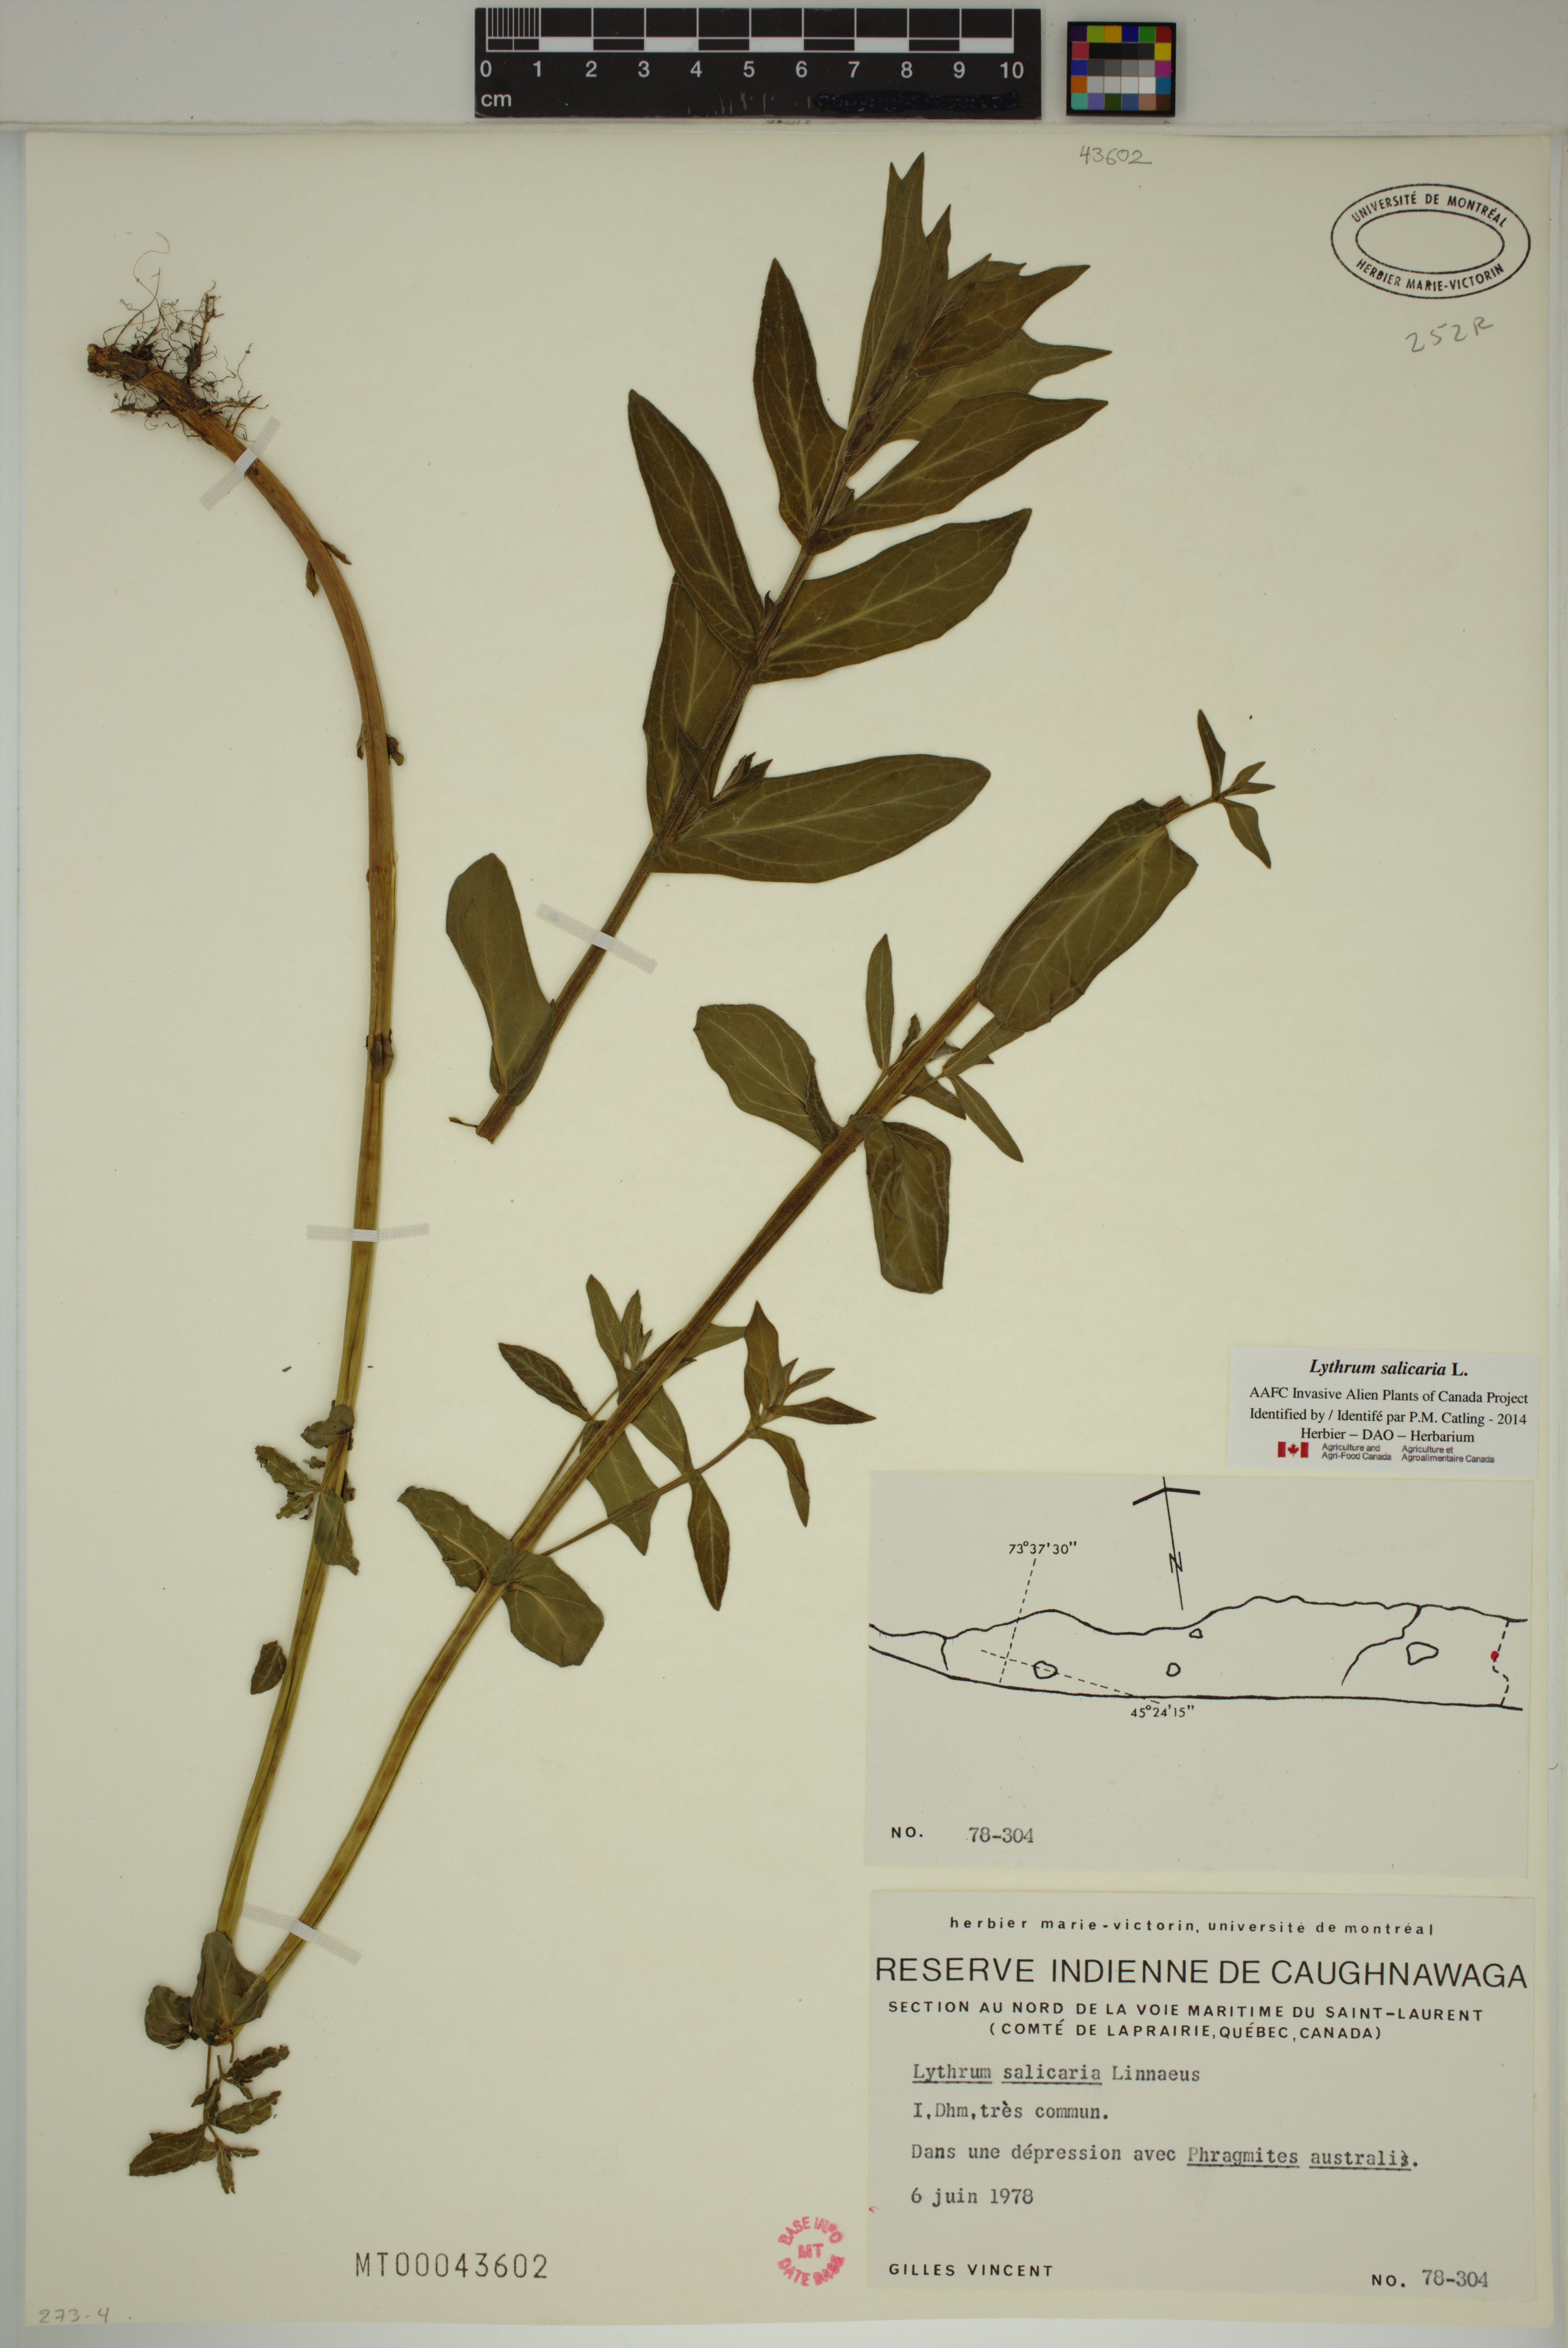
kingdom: Plantae
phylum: Tracheophyta
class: Magnoliopsida
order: Myrtales
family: Lythraceae
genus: Lythrum
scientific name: Lythrum salicaria
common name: Purple loosestrife
